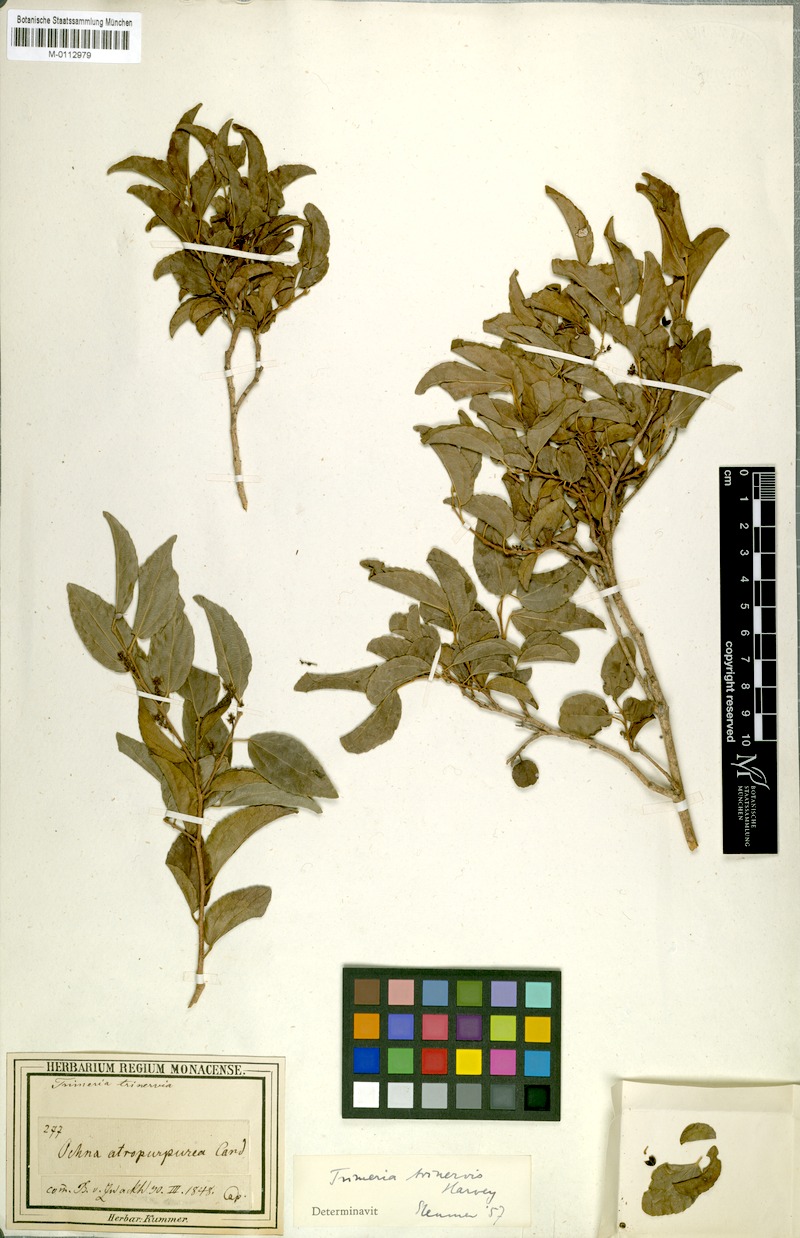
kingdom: Plantae
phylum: Tracheophyta
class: Magnoliopsida
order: Malpighiales
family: Salicaceae
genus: Trimeria
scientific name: Trimeria trinervis
